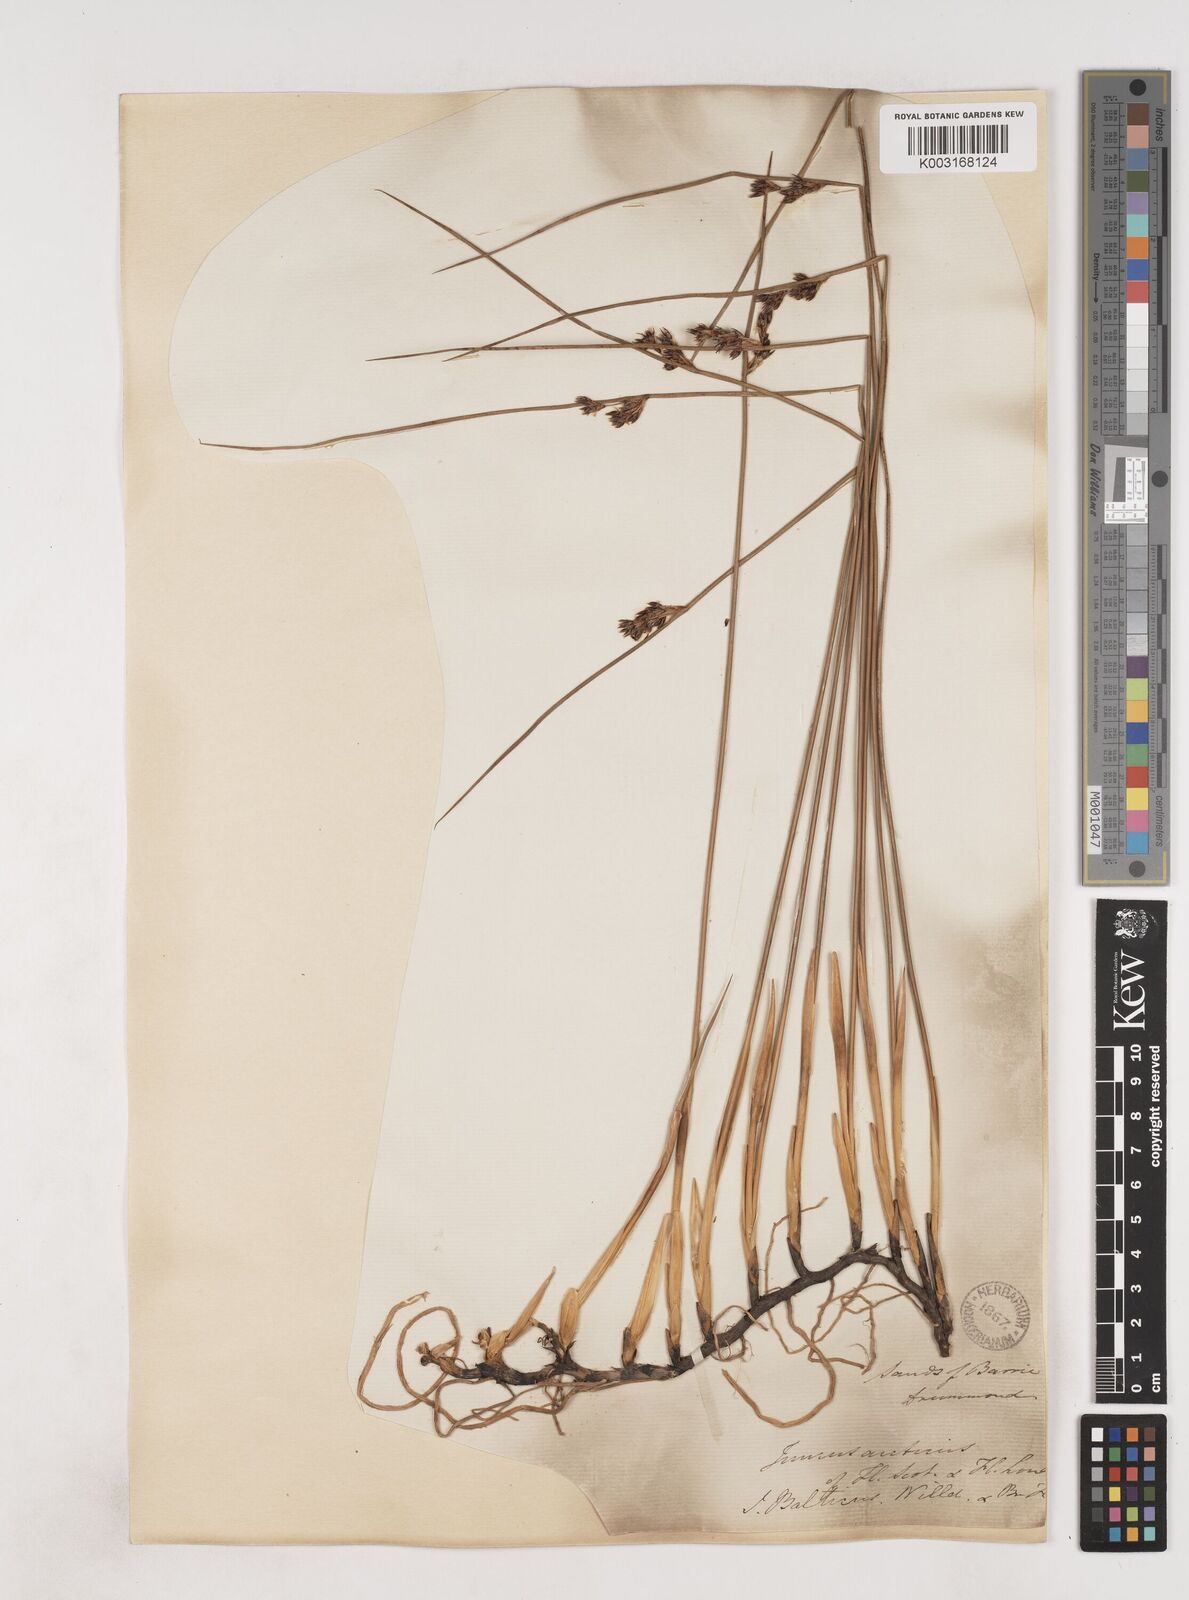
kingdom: Plantae
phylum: Tracheophyta
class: Liliopsida
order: Poales
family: Juncaceae
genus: Juncus
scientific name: Juncus balticus
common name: Baltic rush
